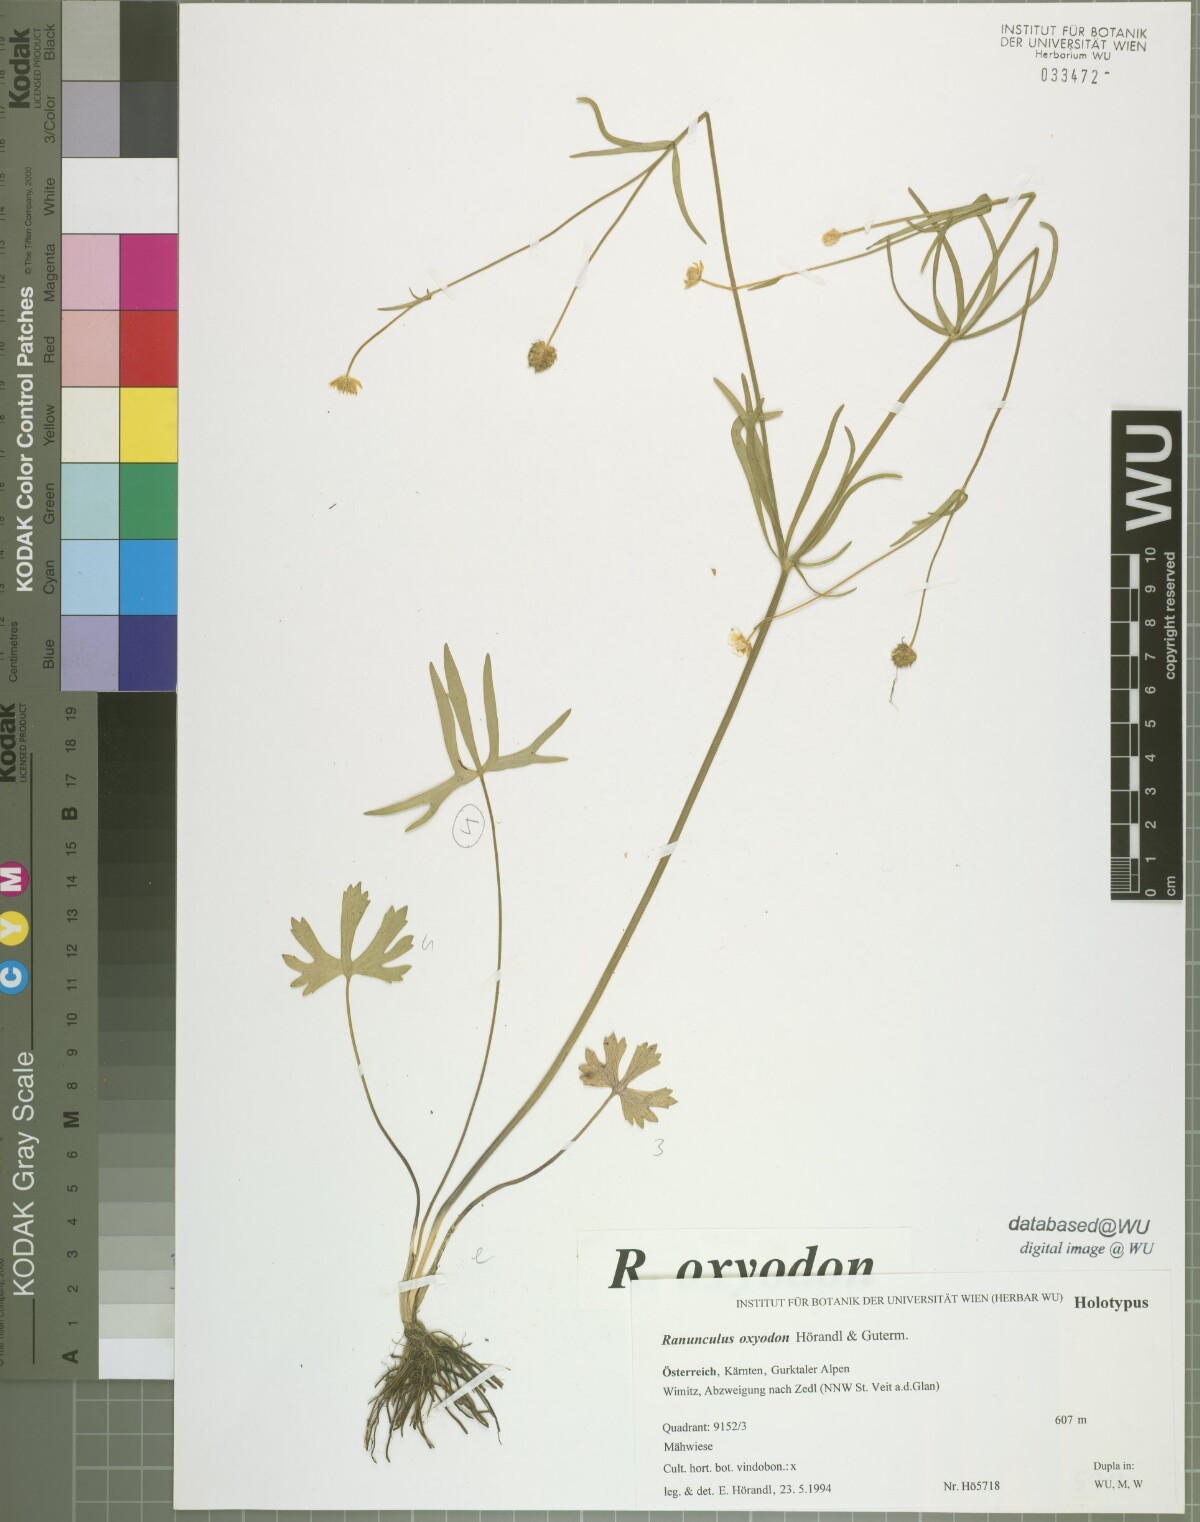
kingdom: Plantae
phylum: Tracheophyta
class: Magnoliopsida
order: Ranunculales
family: Ranunculaceae
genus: Ranunculus
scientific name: Ranunculus oxyodon
